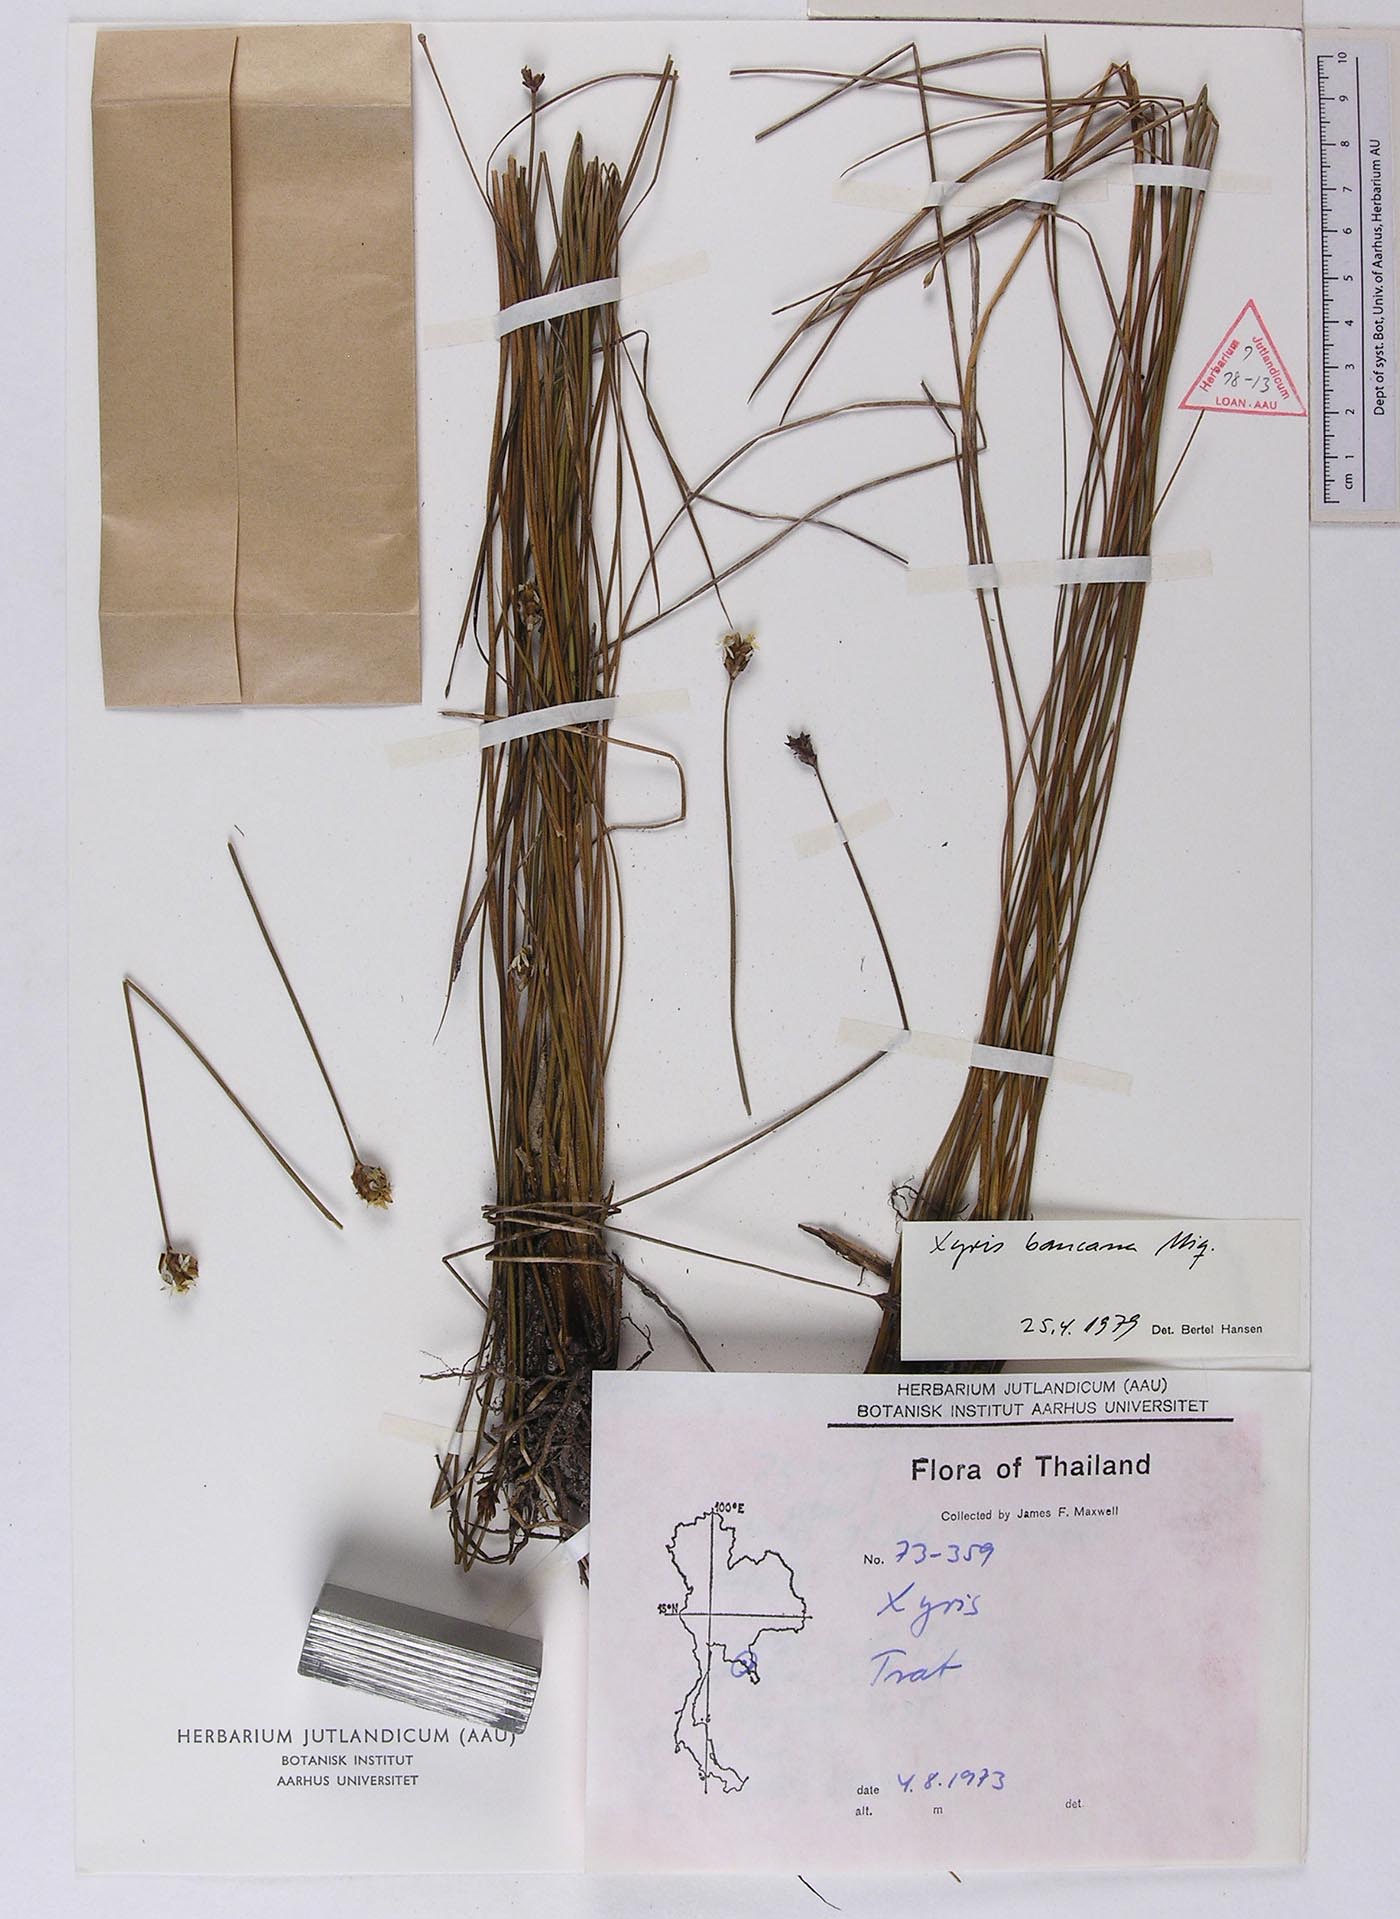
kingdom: Plantae
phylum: Tracheophyta
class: Liliopsida
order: Poales
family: Xyridaceae
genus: Xyris
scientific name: Xyris bancana
